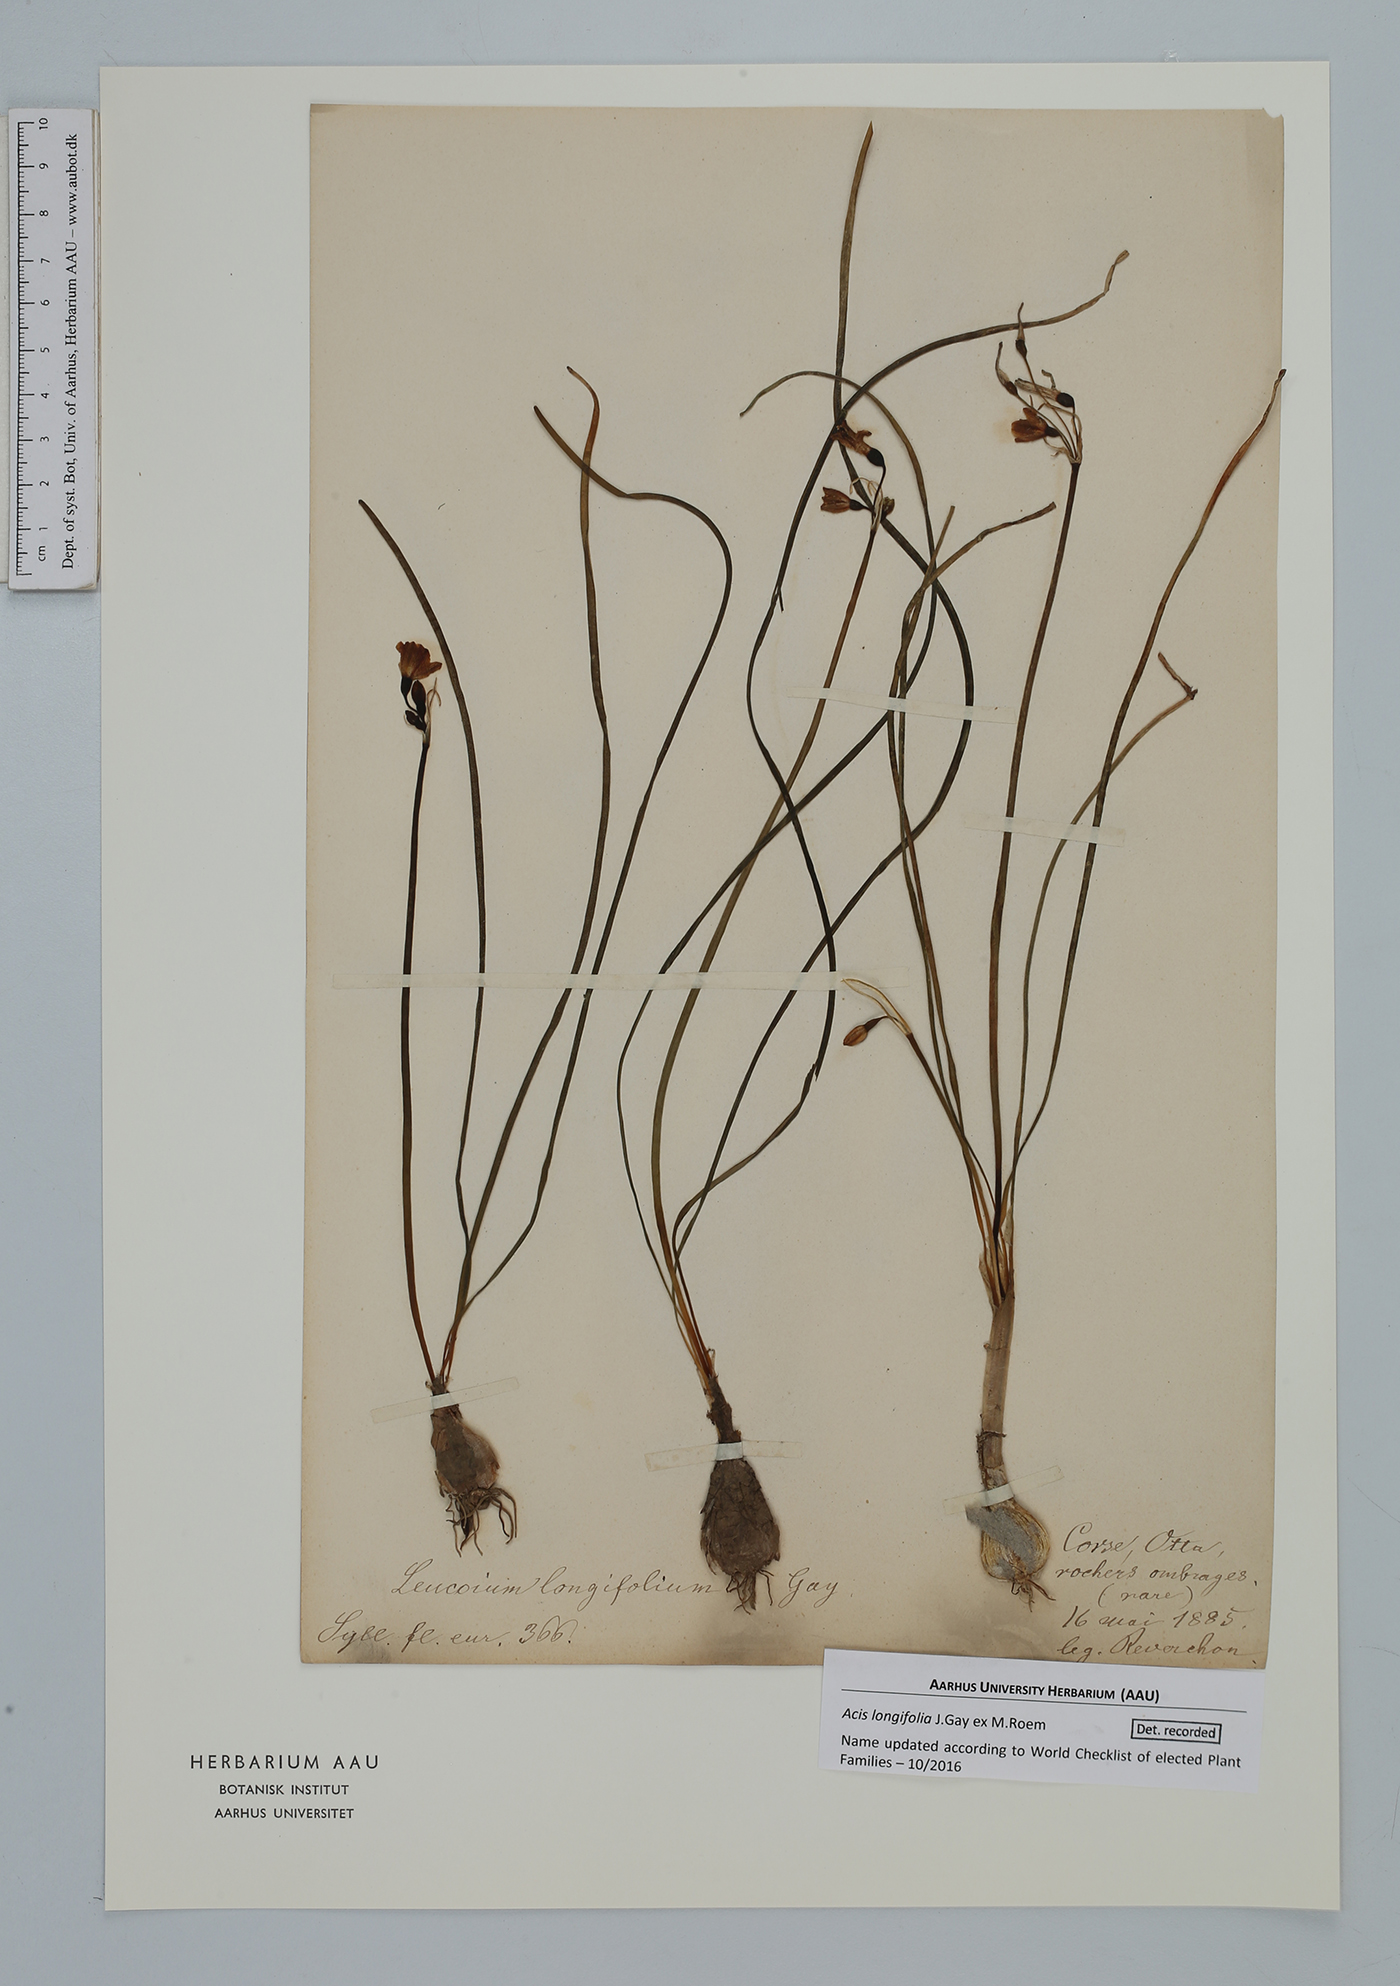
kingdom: Plantae
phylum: Tracheophyta
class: Liliopsida
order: Asparagales
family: Amaryllidaceae
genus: Acis
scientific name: Acis longifolia
